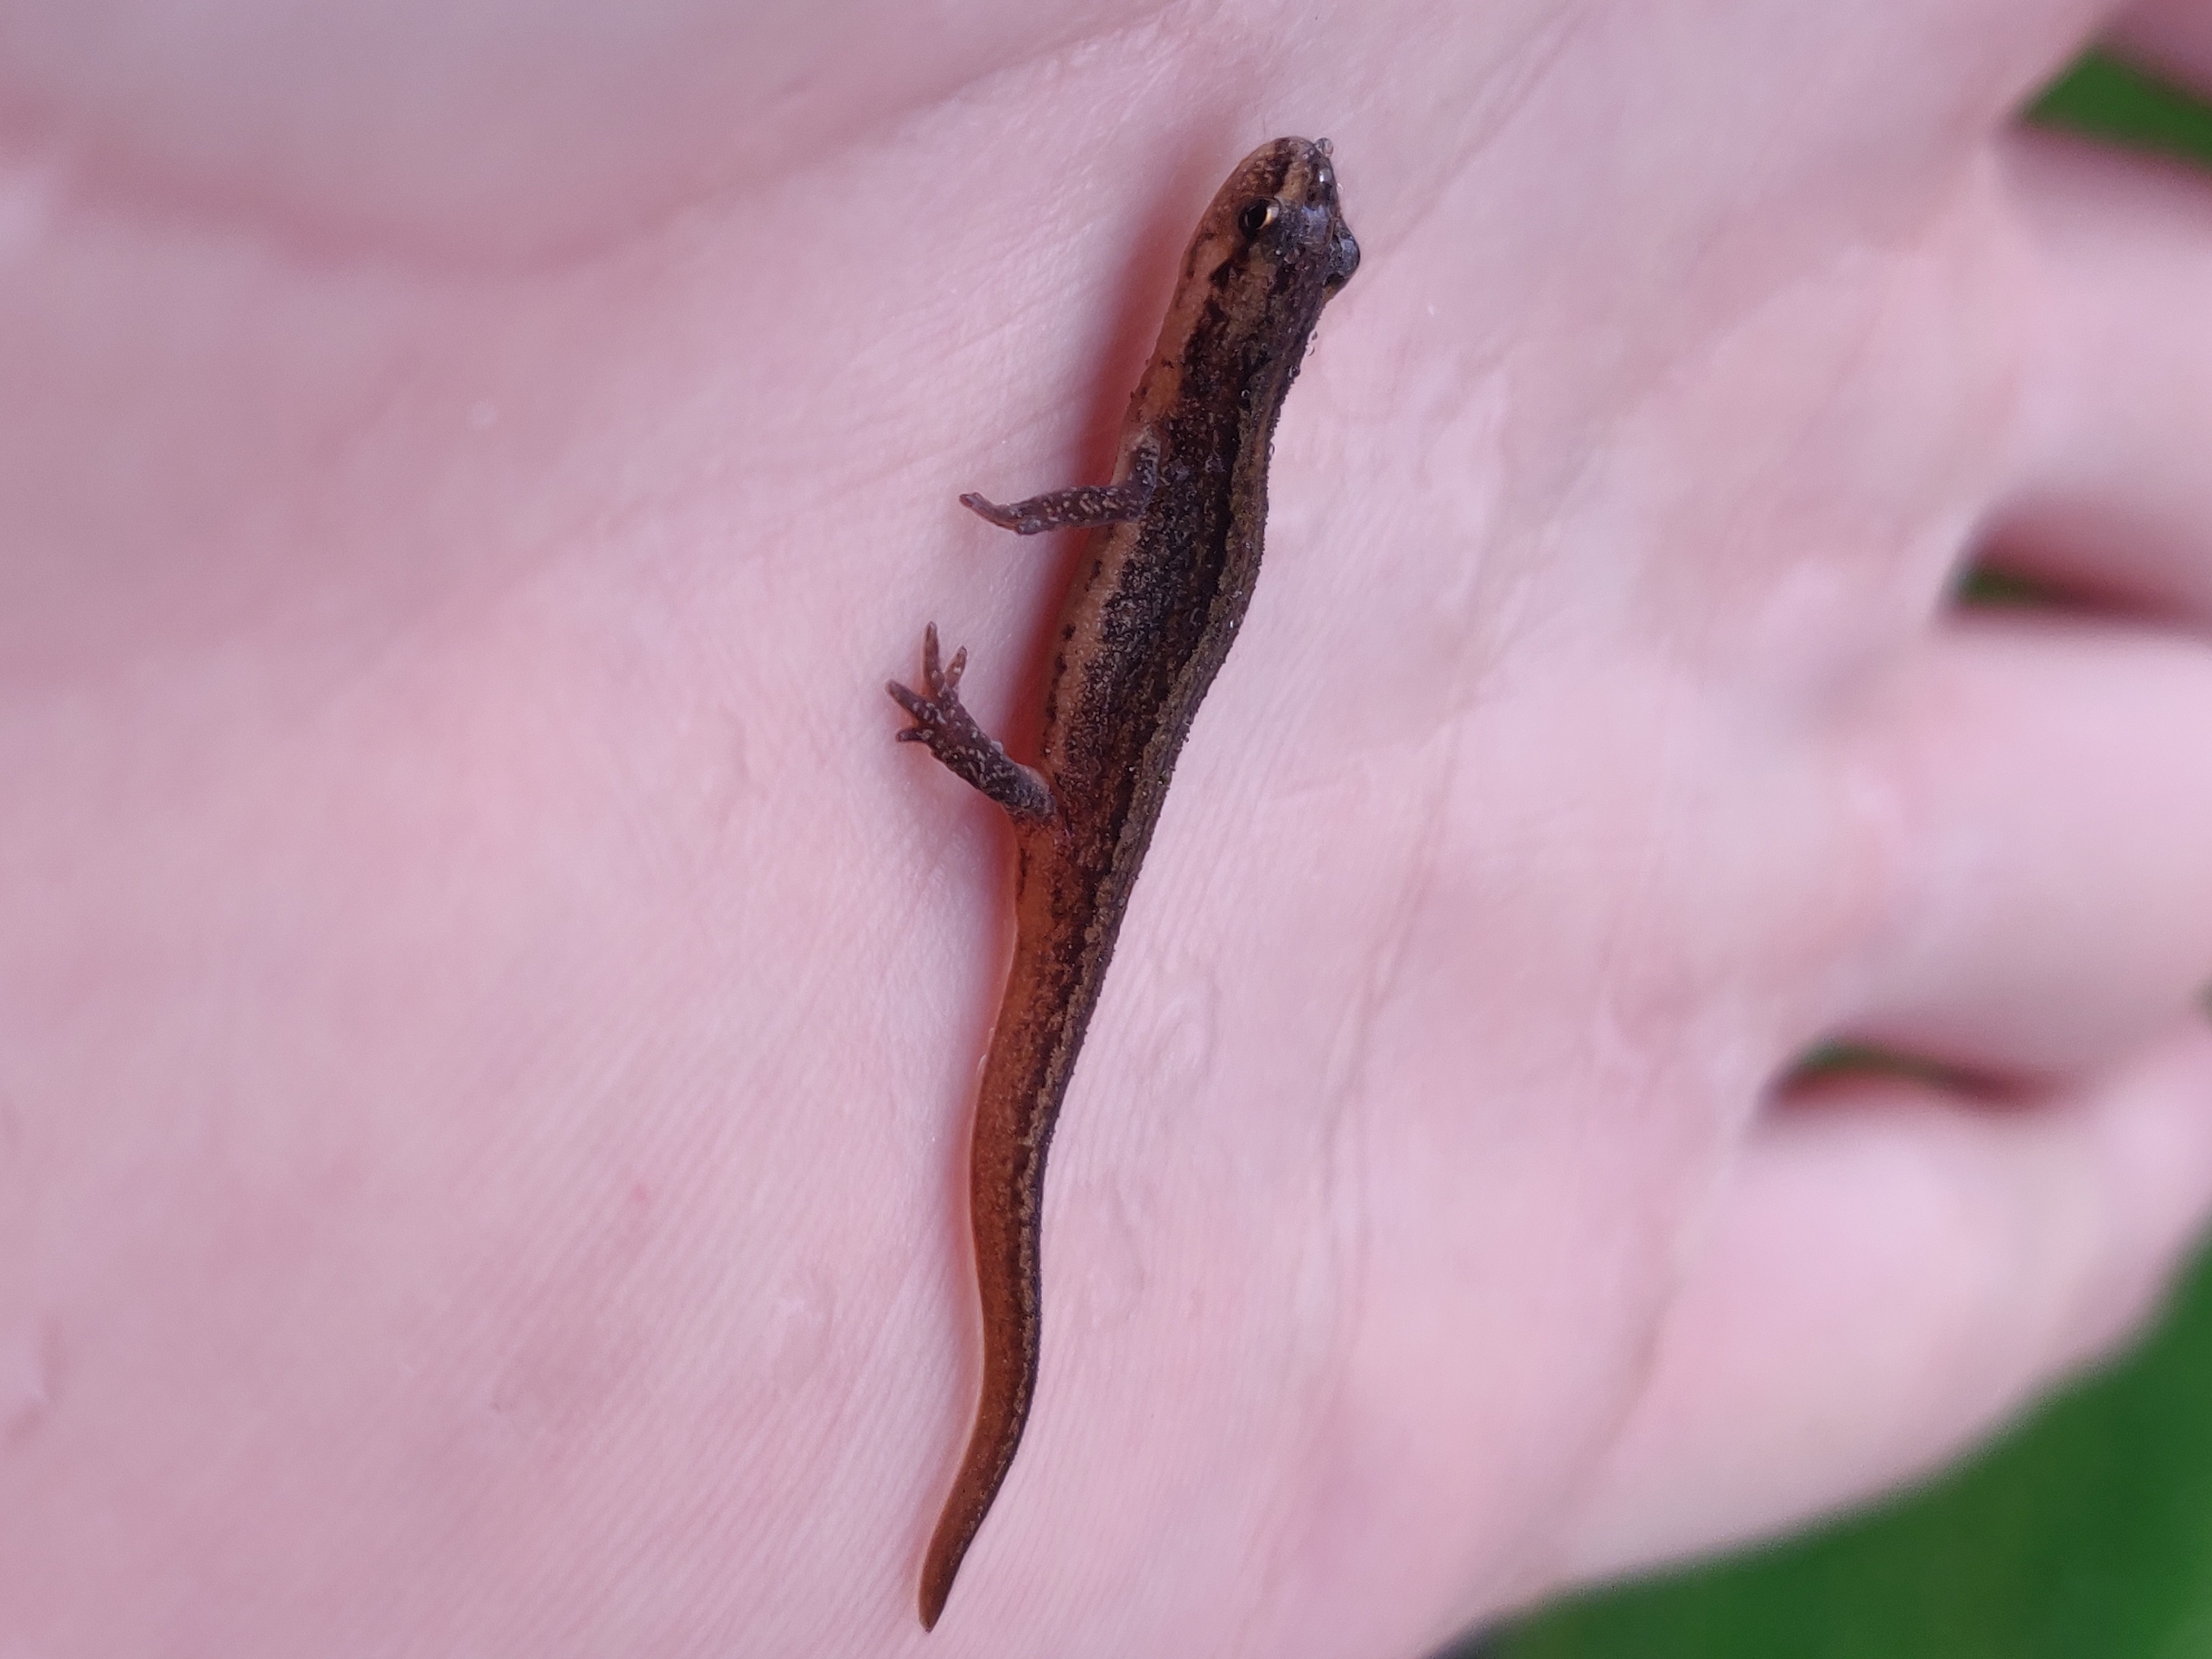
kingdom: Animalia
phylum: Chordata
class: Amphibia
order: Caudata
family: Salamandridae
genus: Lissotriton
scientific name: Lissotriton vulgaris
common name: Lille vandsalamander
